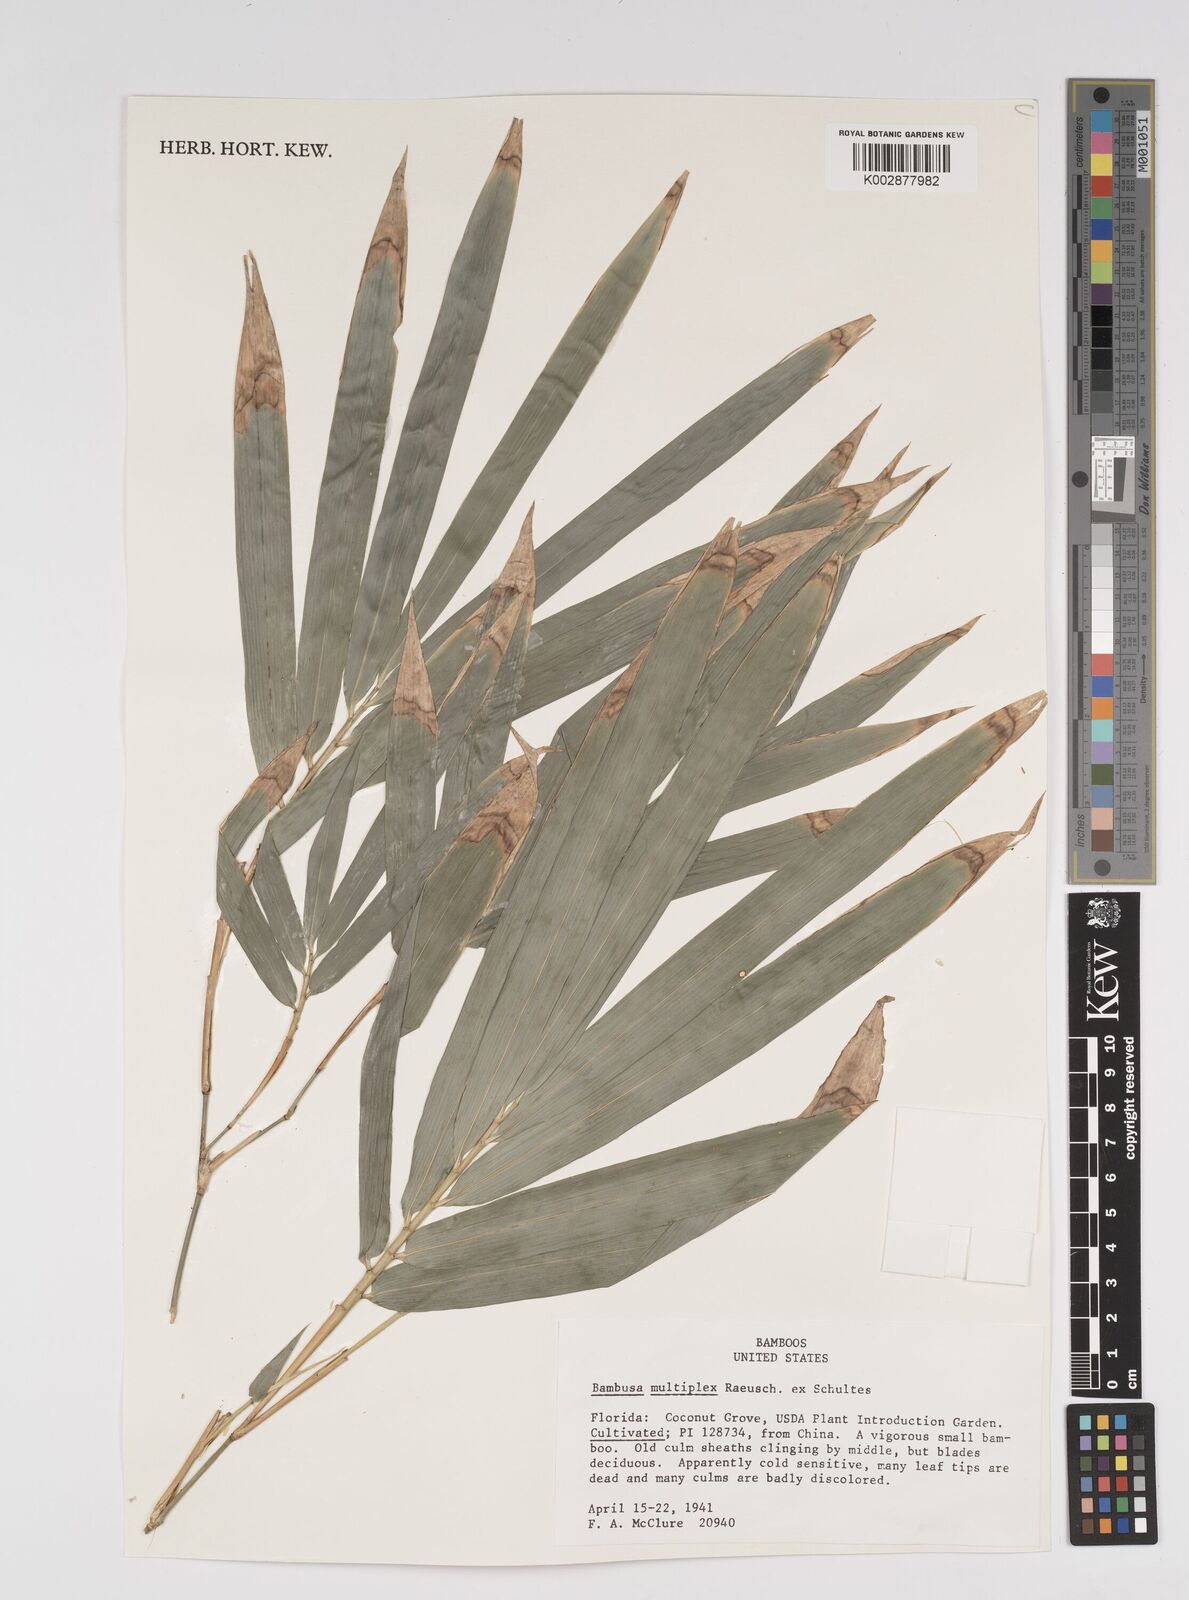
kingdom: Plantae
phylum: Tracheophyta
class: Liliopsida
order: Poales
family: Poaceae
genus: Bambusa
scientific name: Bambusa
